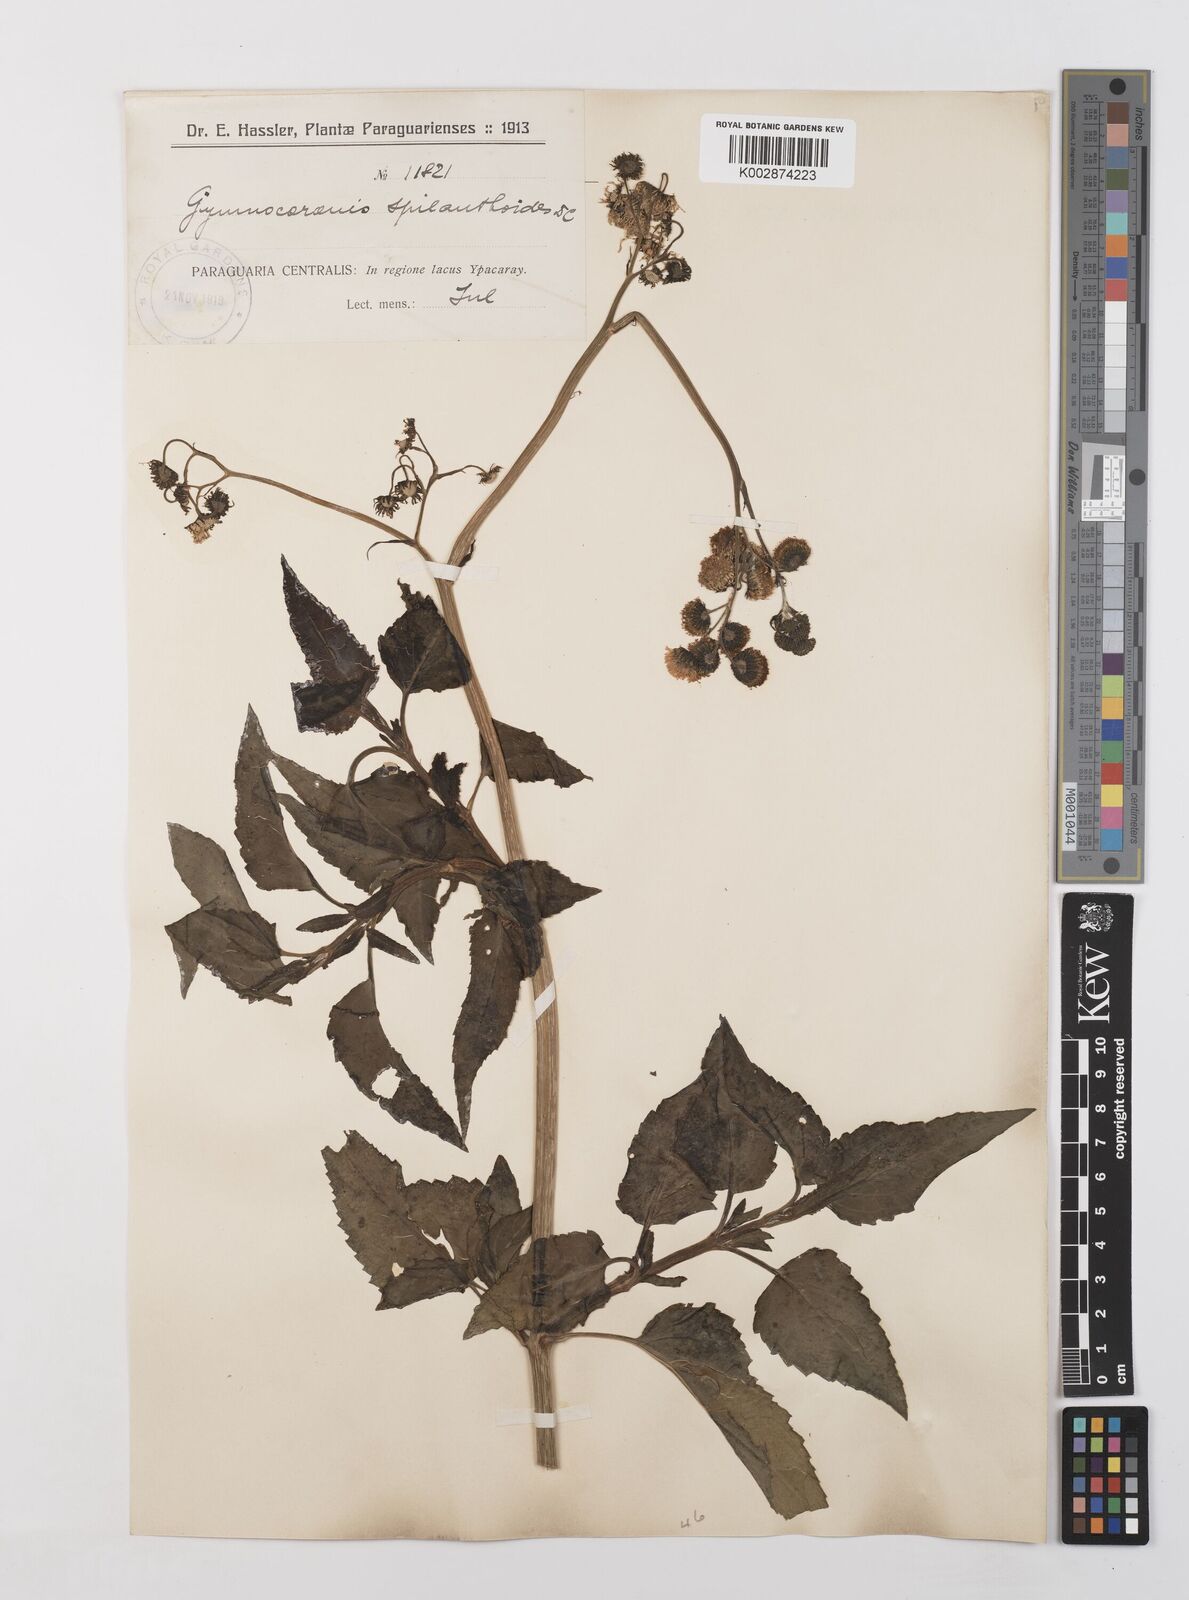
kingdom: Plantae
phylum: Tracheophyta
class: Magnoliopsida
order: Asterales
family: Asteraceae
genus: Gymnocoronis
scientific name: Gymnocoronis spilanthoides
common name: Senegal teaplant
